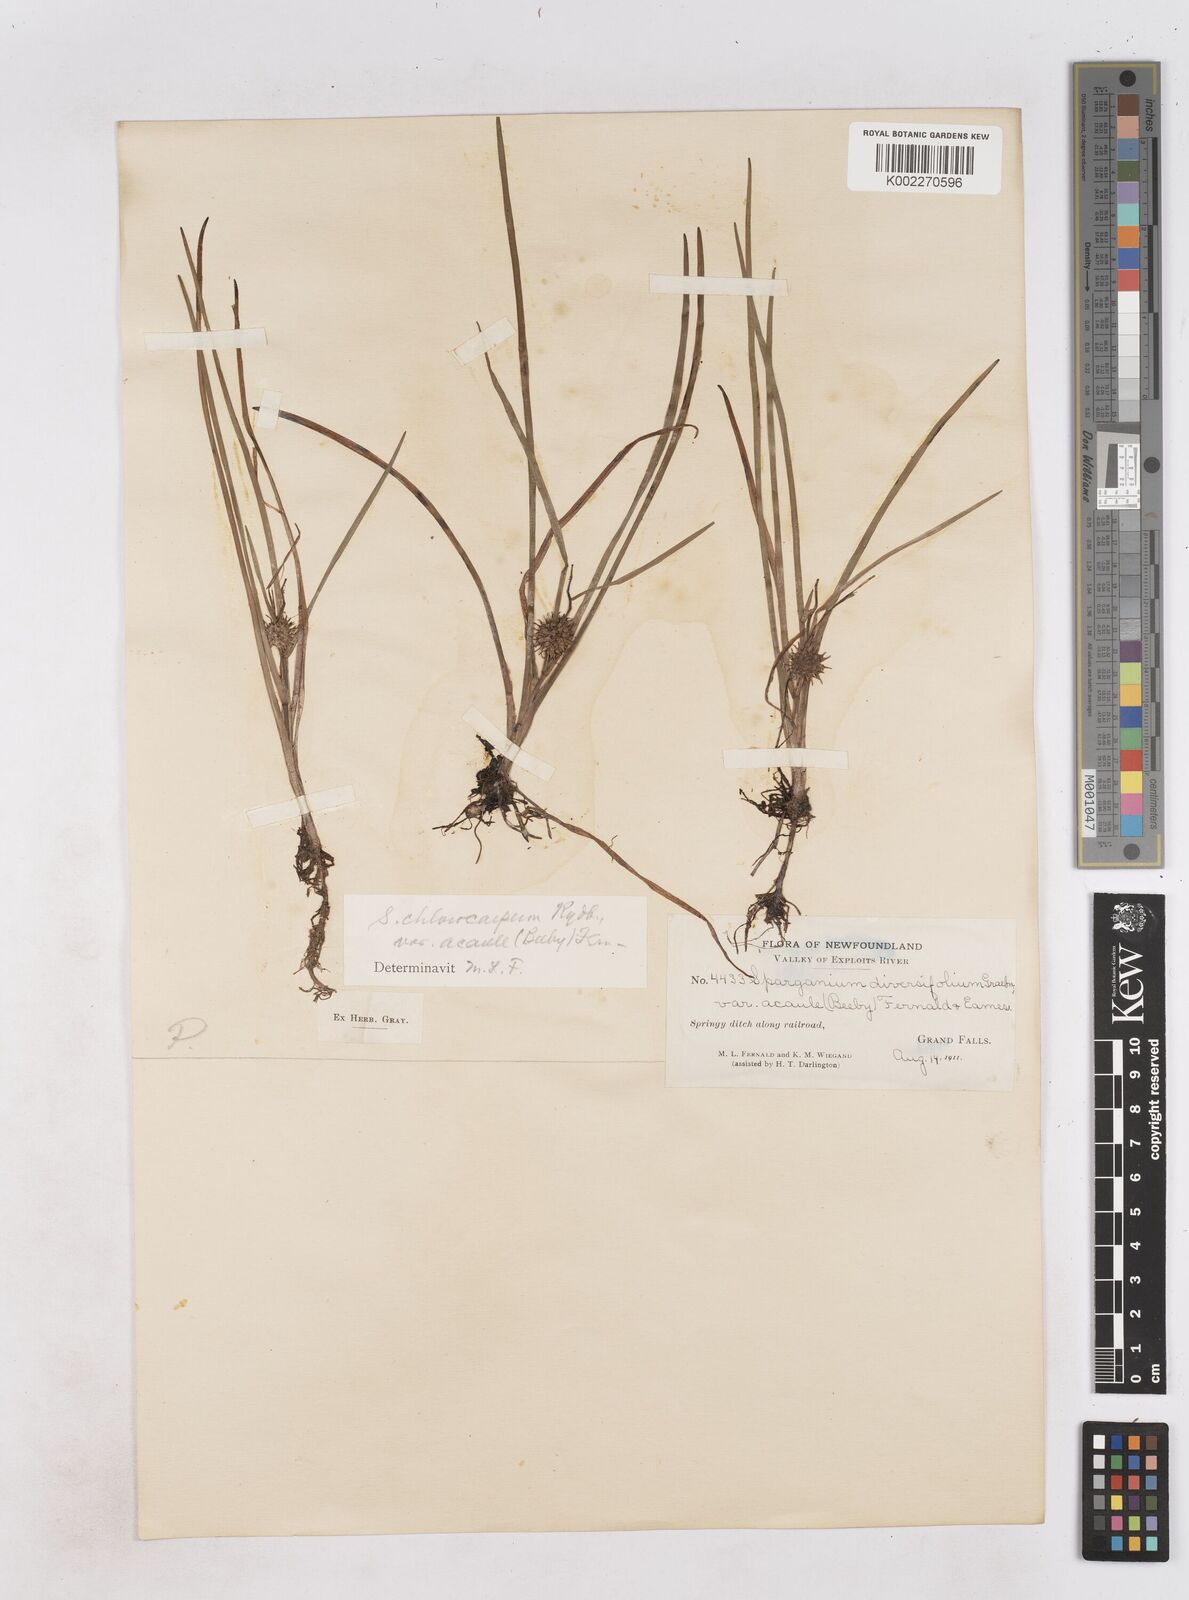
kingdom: Plantae
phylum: Tracheophyta
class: Liliopsida
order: Poales
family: Typhaceae
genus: Sparganium
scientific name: Sparganium emersum
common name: Unbranched bur-reed
